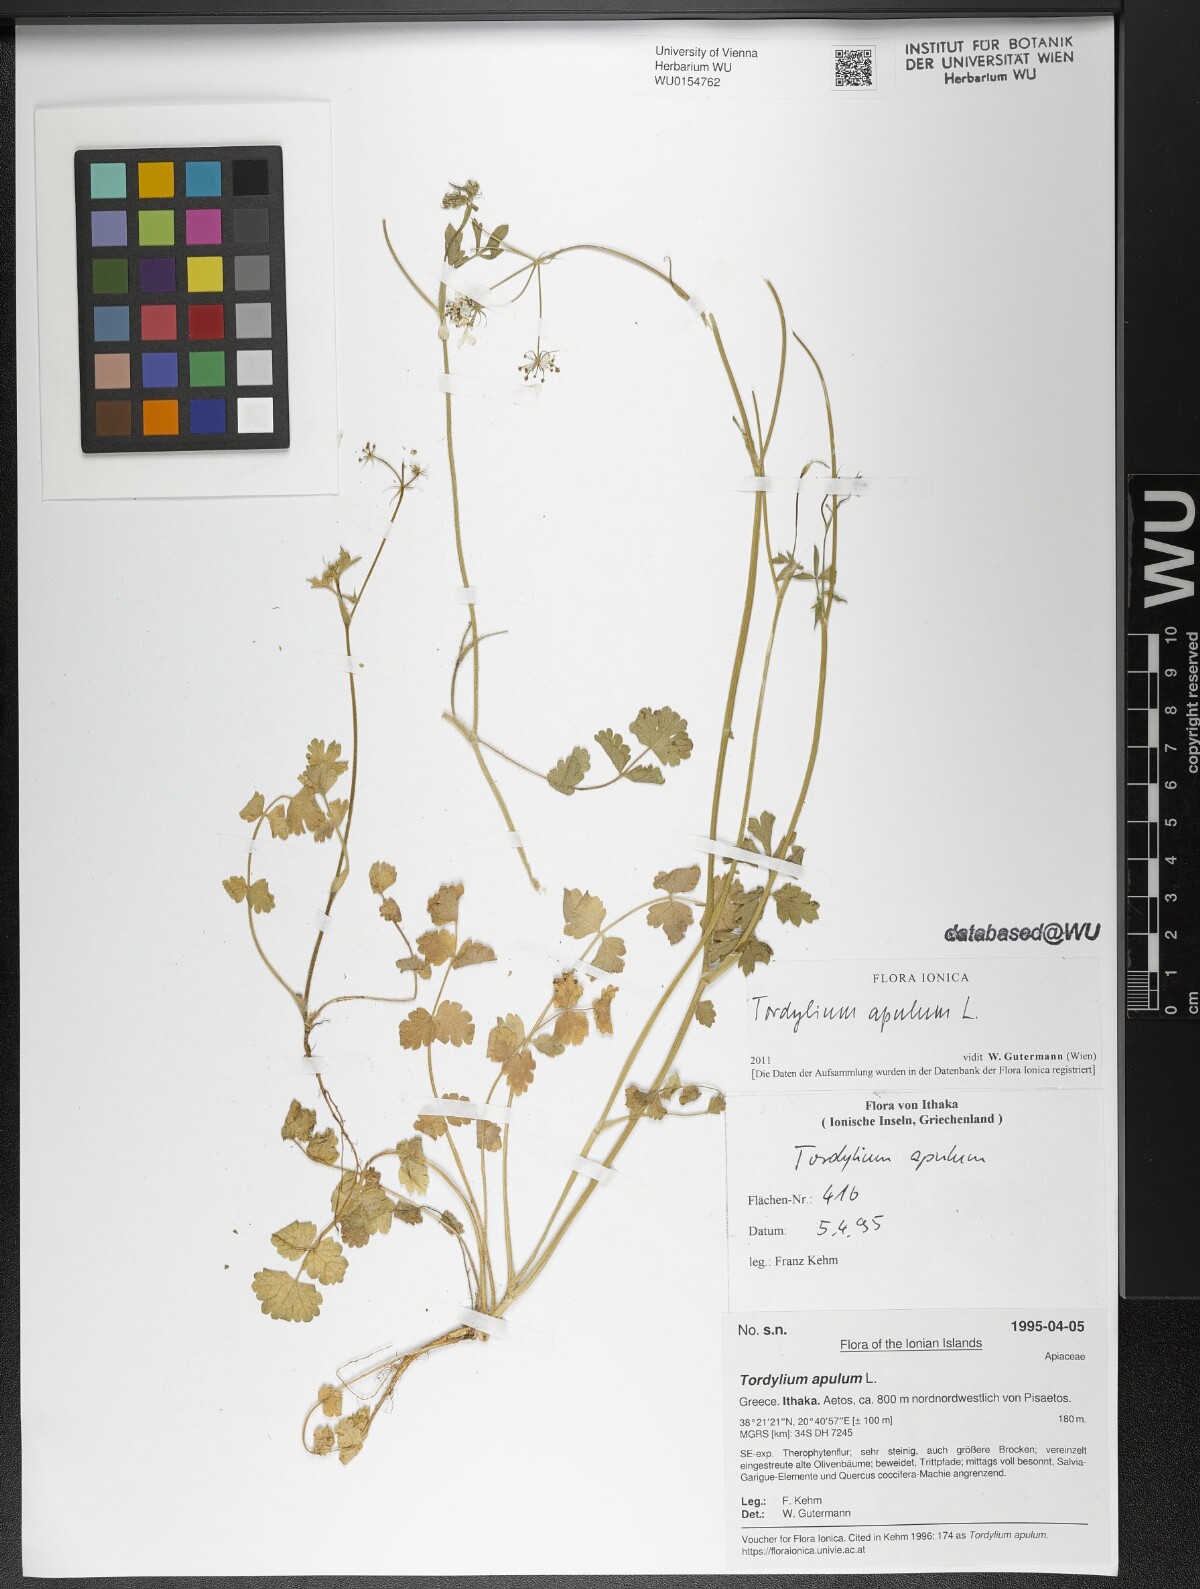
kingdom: Plantae
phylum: Tracheophyta
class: Magnoliopsida
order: Apiales
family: Apiaceae
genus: Tordylium
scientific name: Tordylium apulum
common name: Mediterranean hartwort
